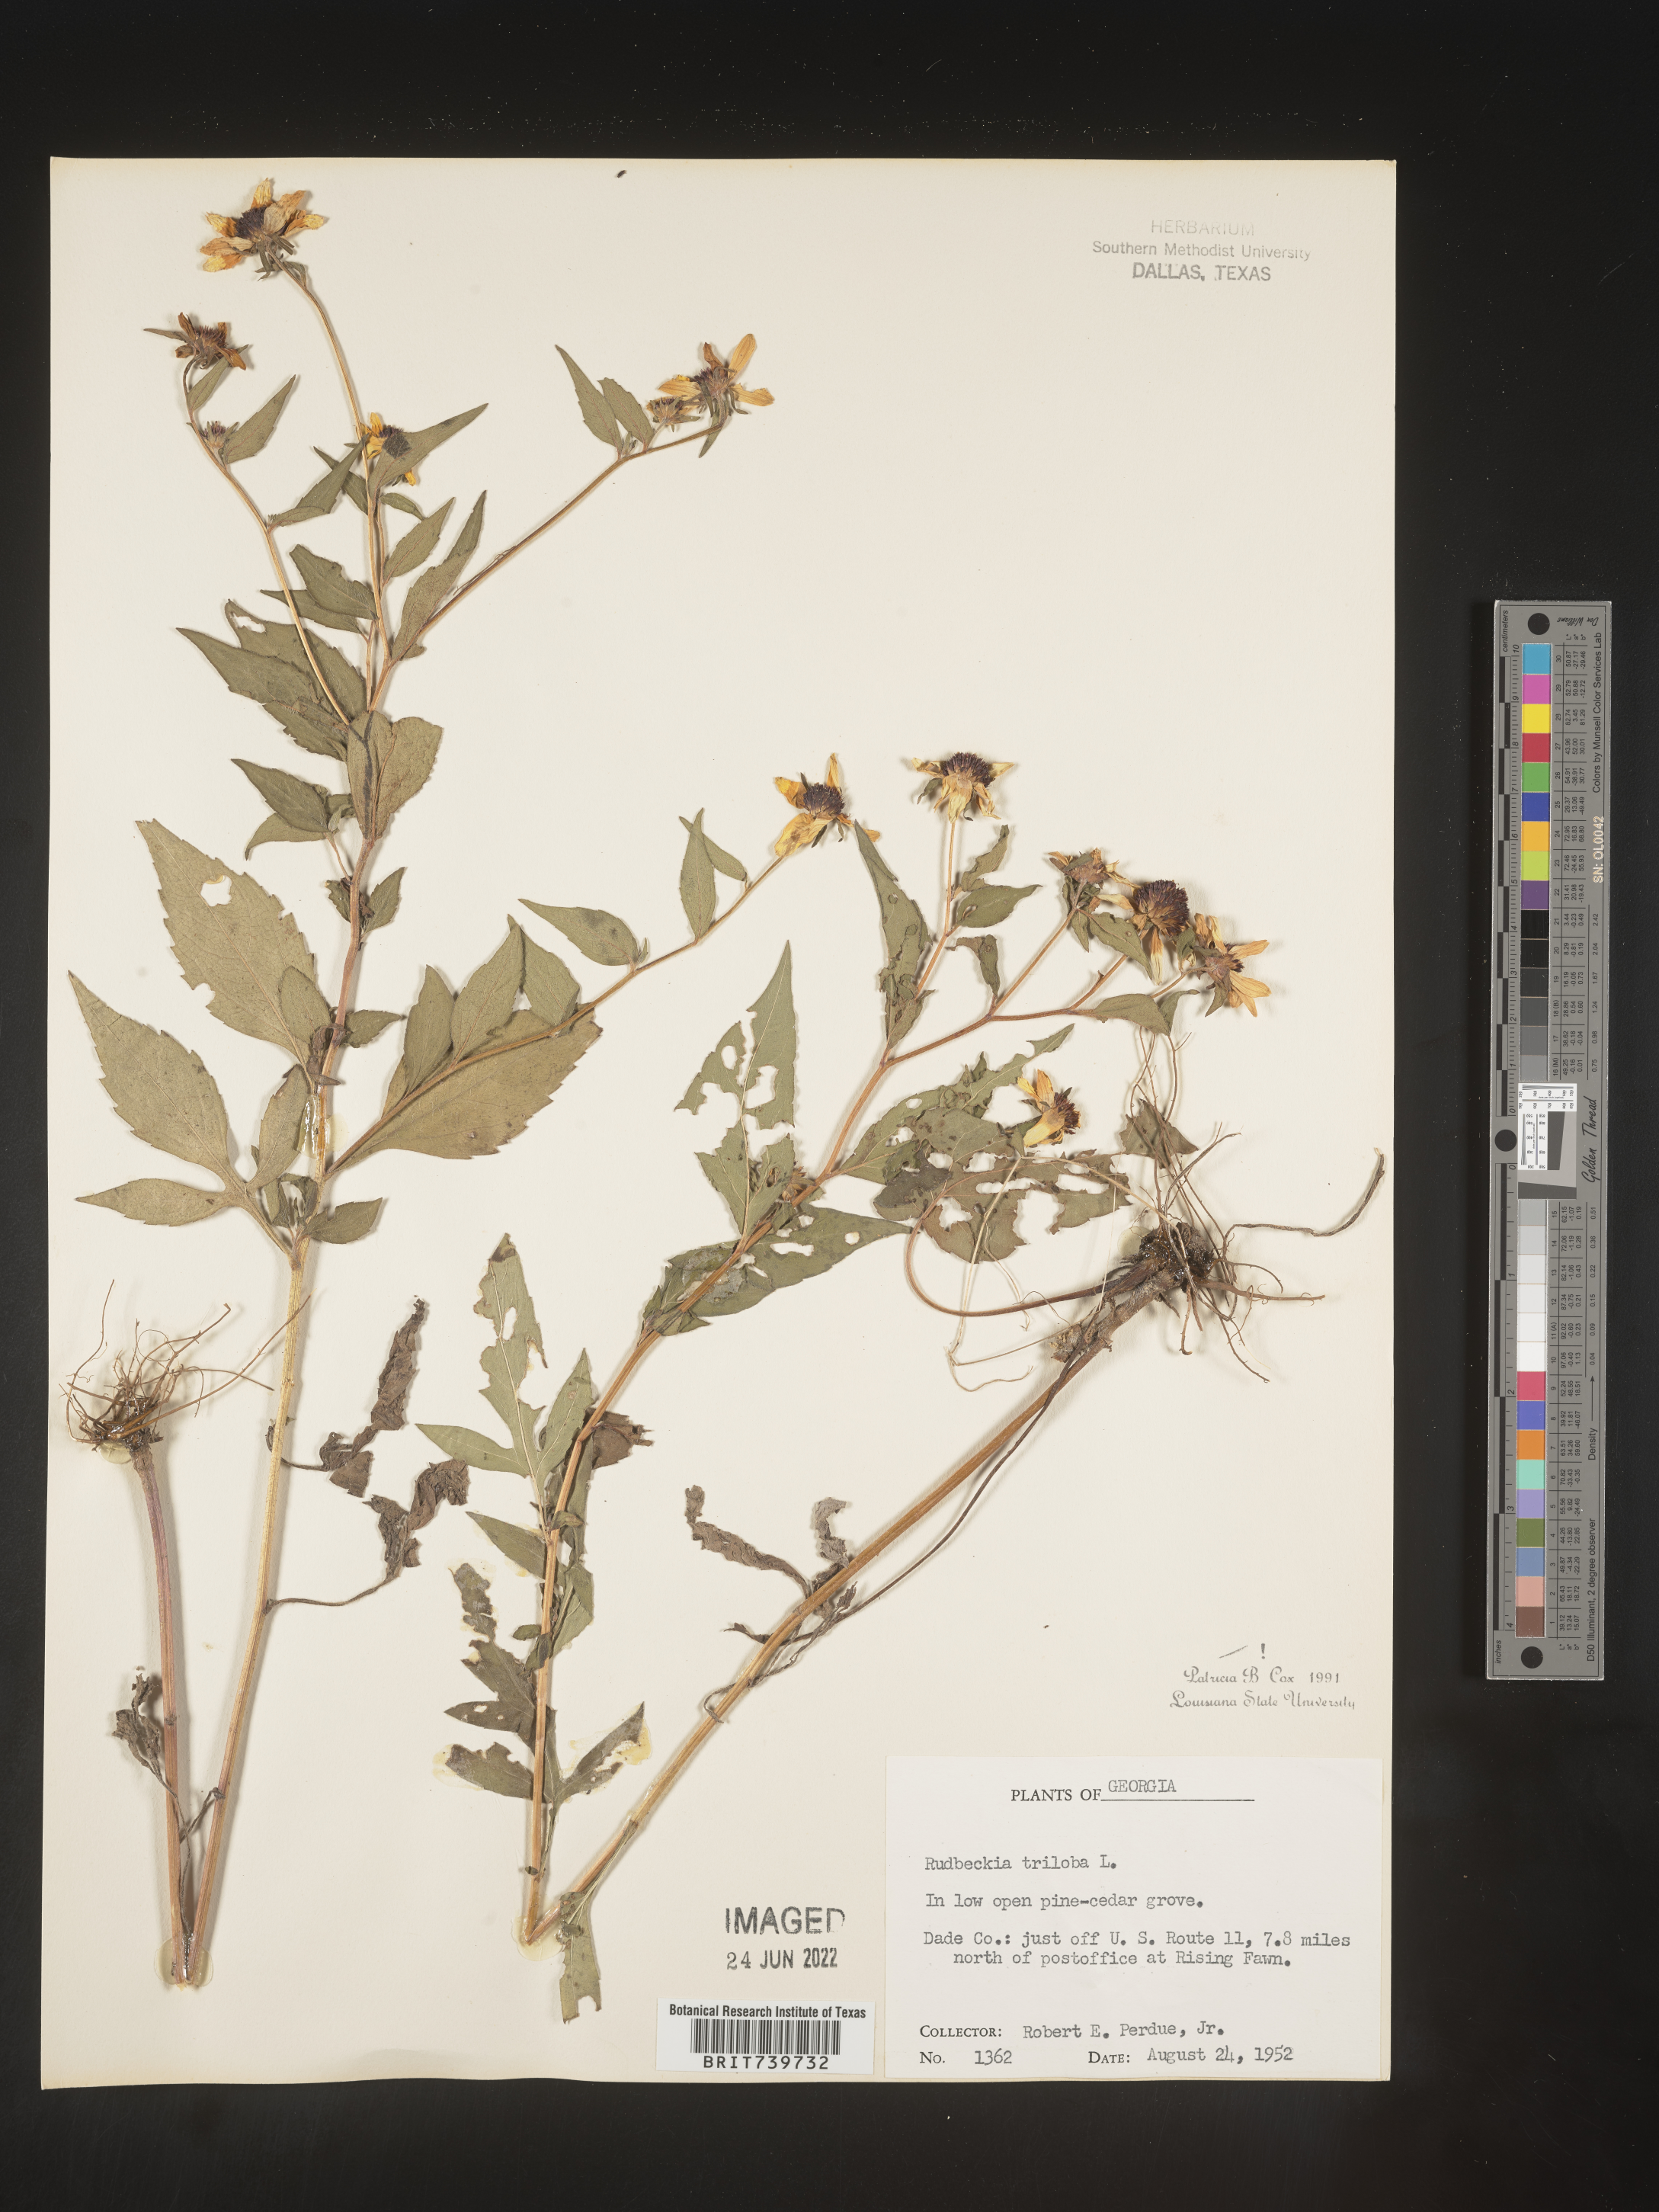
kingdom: Plantae
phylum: Tracheophyta
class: Magnoliopsida
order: Asterales
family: Asteraceae
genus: Rudbeckia
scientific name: Rudbeckia triloba
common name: Thin-leaved coneflower
